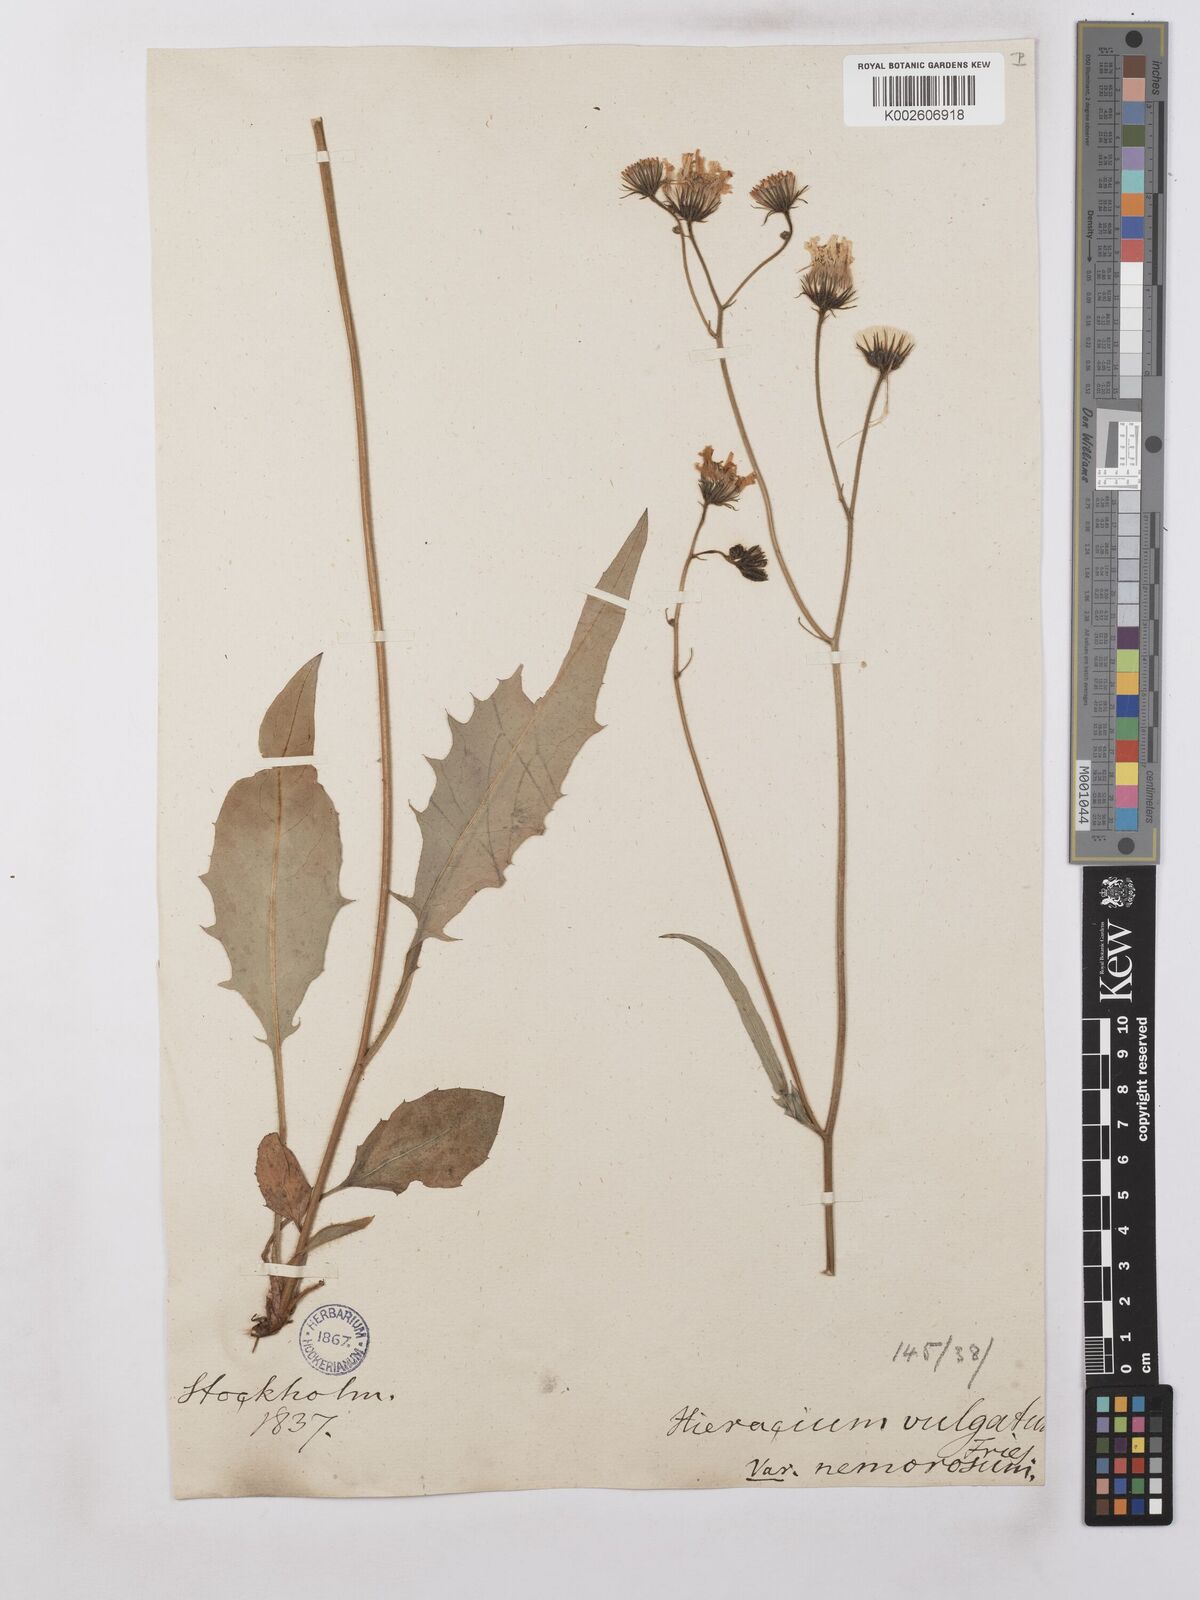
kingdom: Plantae
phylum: Tracheophyta
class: Magnoliopsida
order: Asterales
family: Asteraceae
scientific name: Asteraceae
